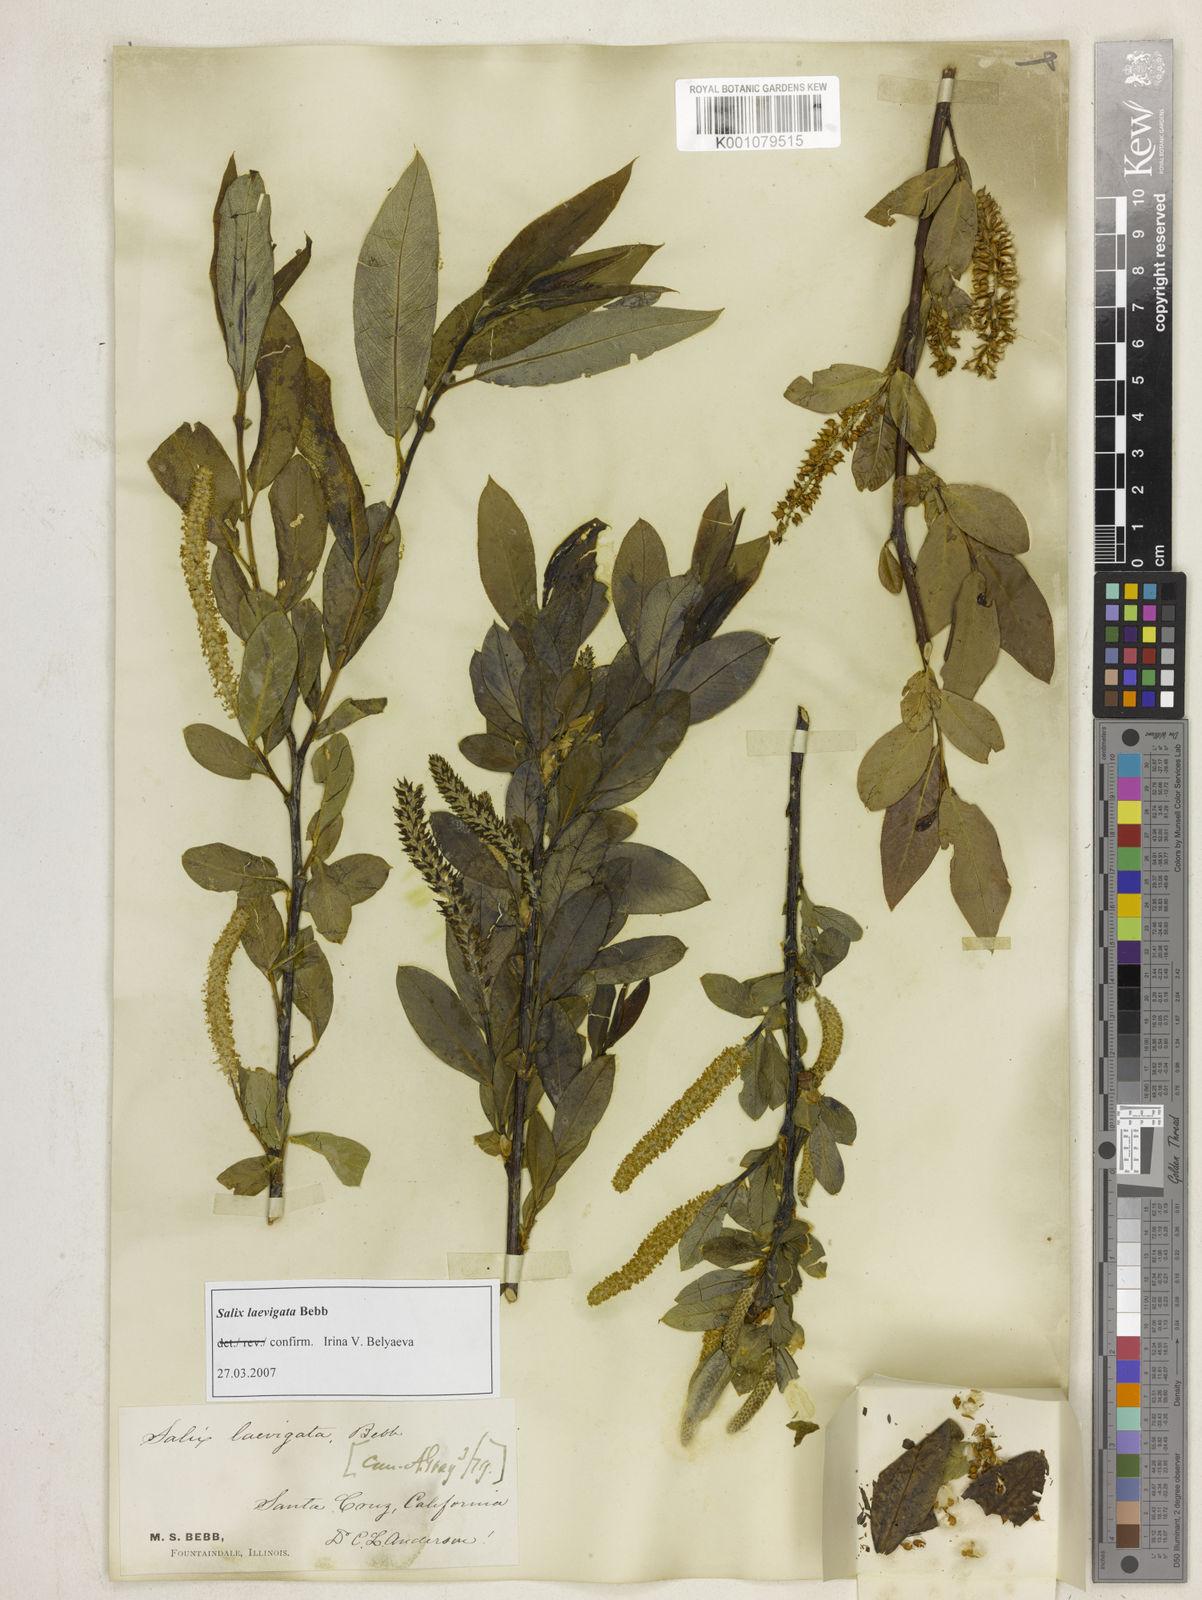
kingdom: Plantae
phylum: Tracheophyta
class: Magnoliopsida
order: Malpighiales
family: Salicaceae
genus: Salix
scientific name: Salix laevigata
